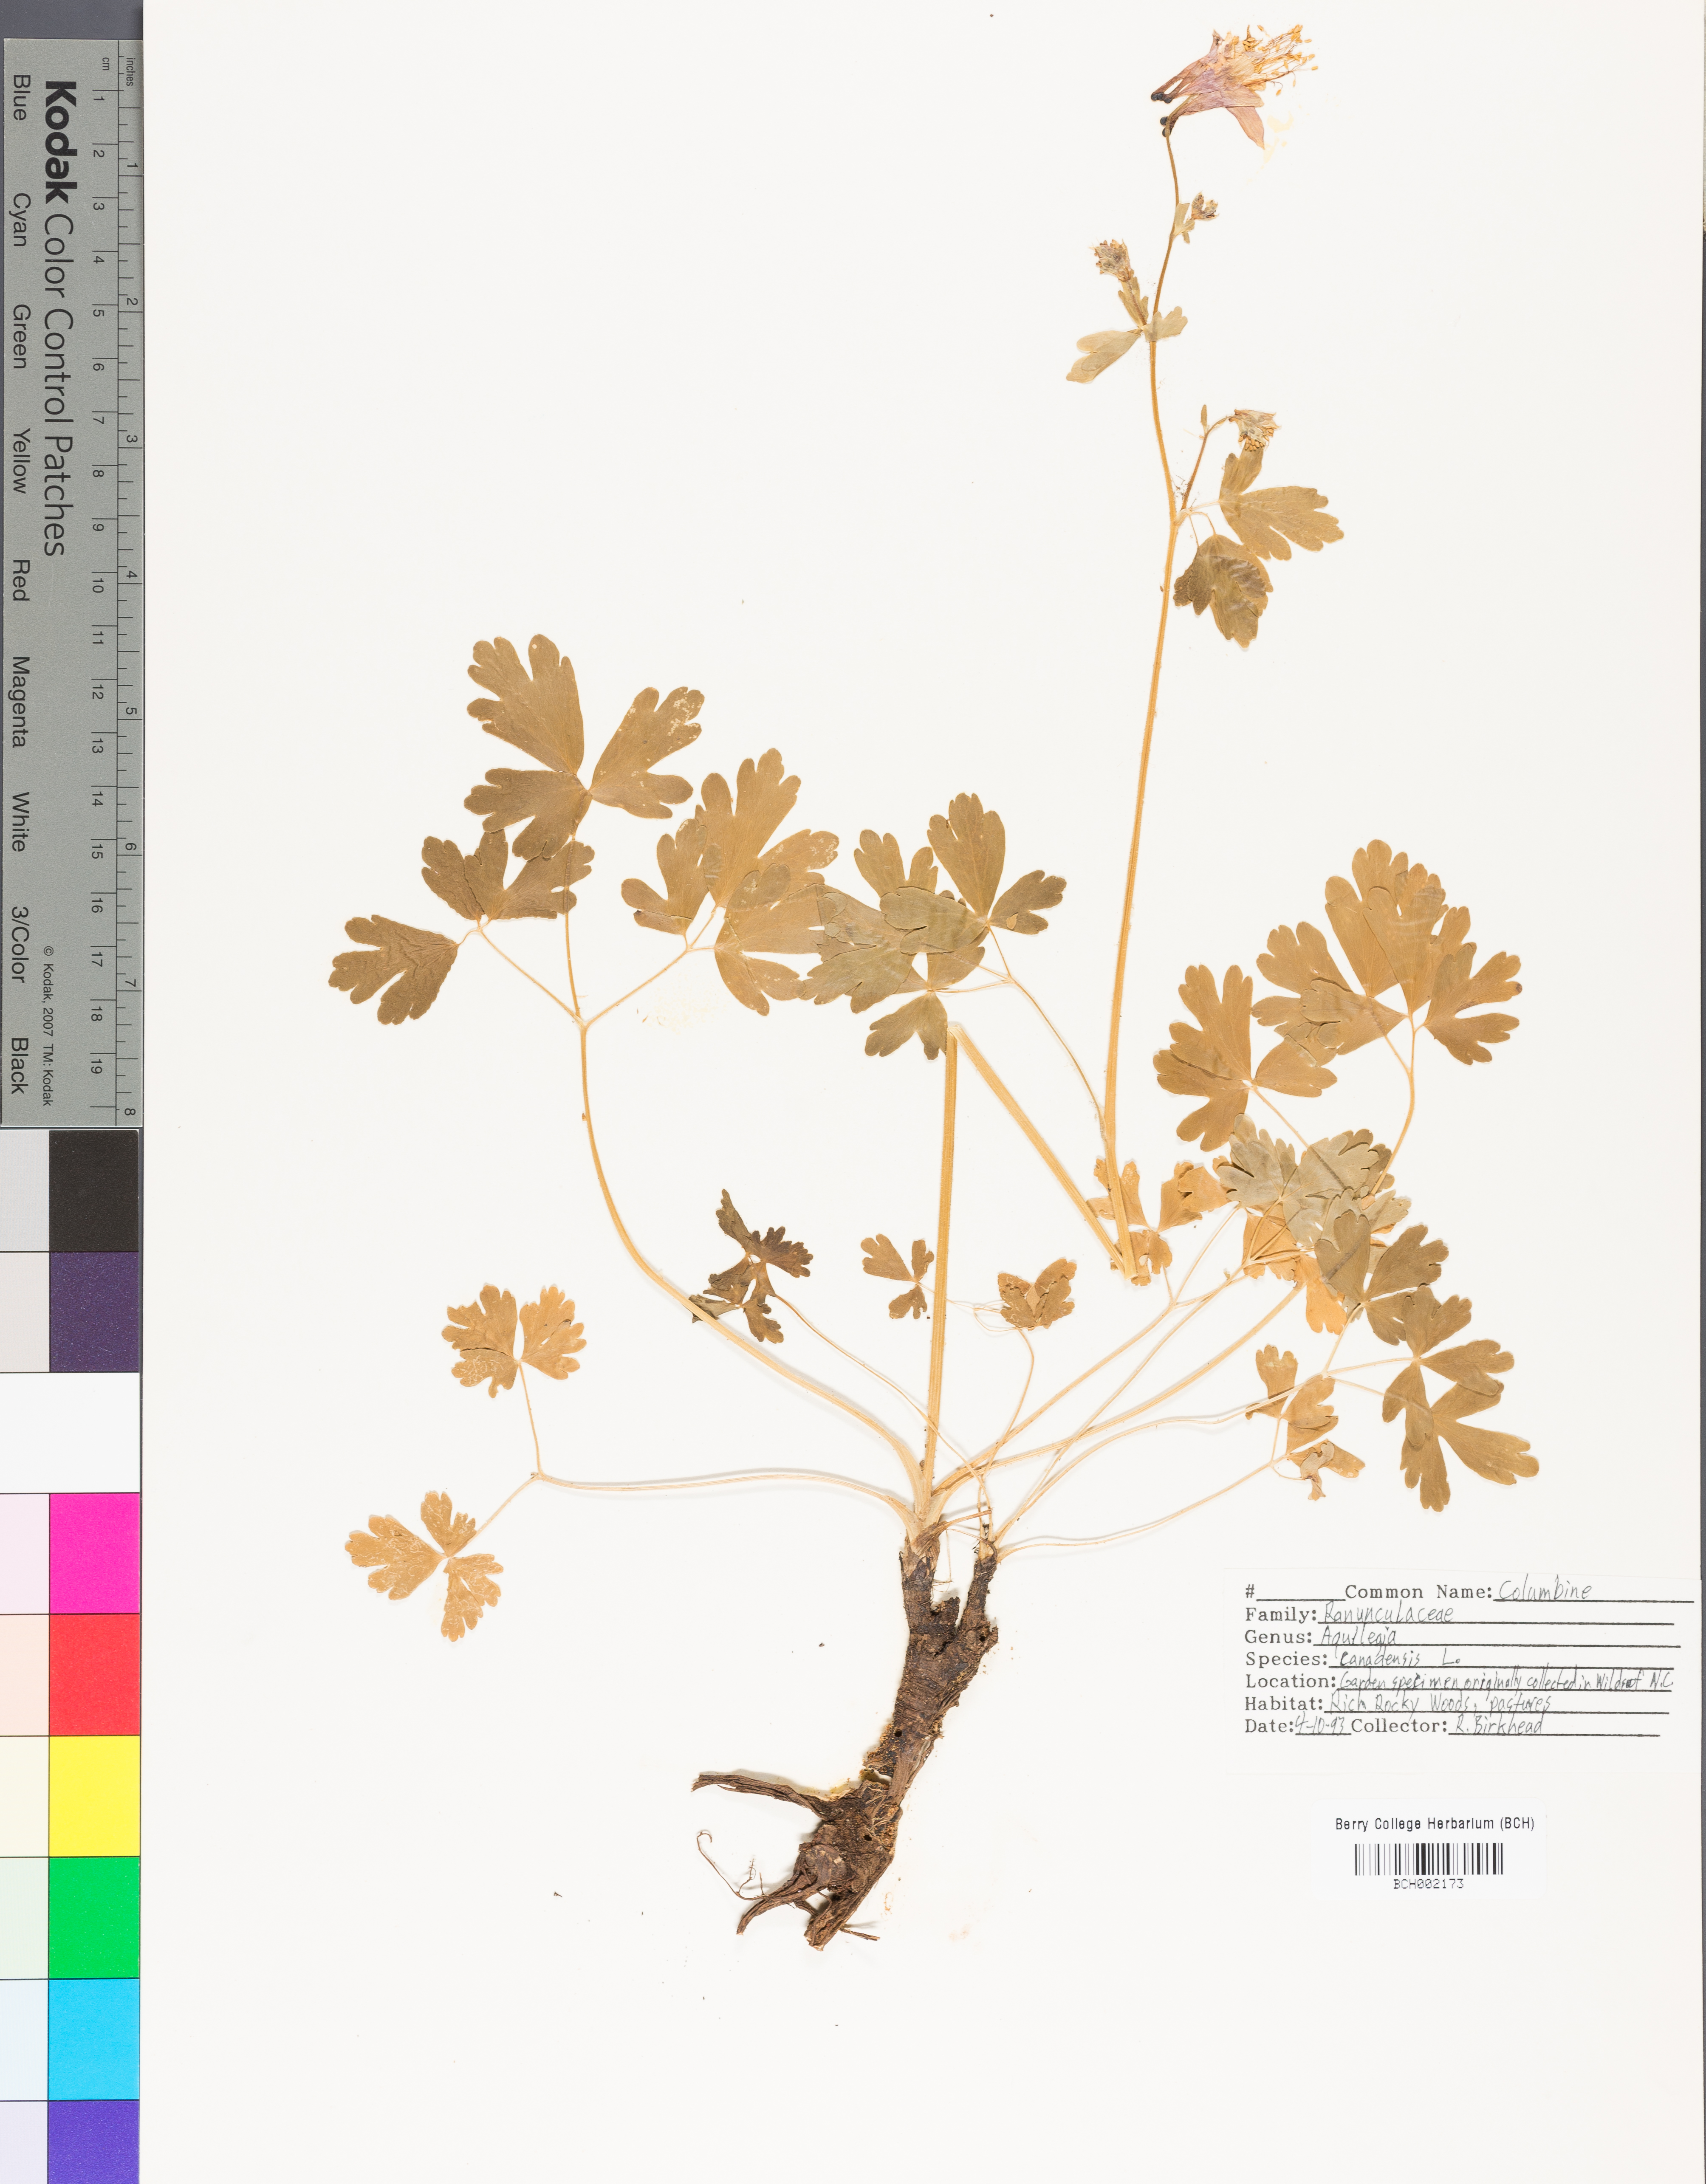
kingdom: Plantae
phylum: Tracheophyta
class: Magnoliopsida
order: Ranunculales
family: Ranunculaceae
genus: Aquilegia
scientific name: Aquilegia canadensis
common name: American columbine
